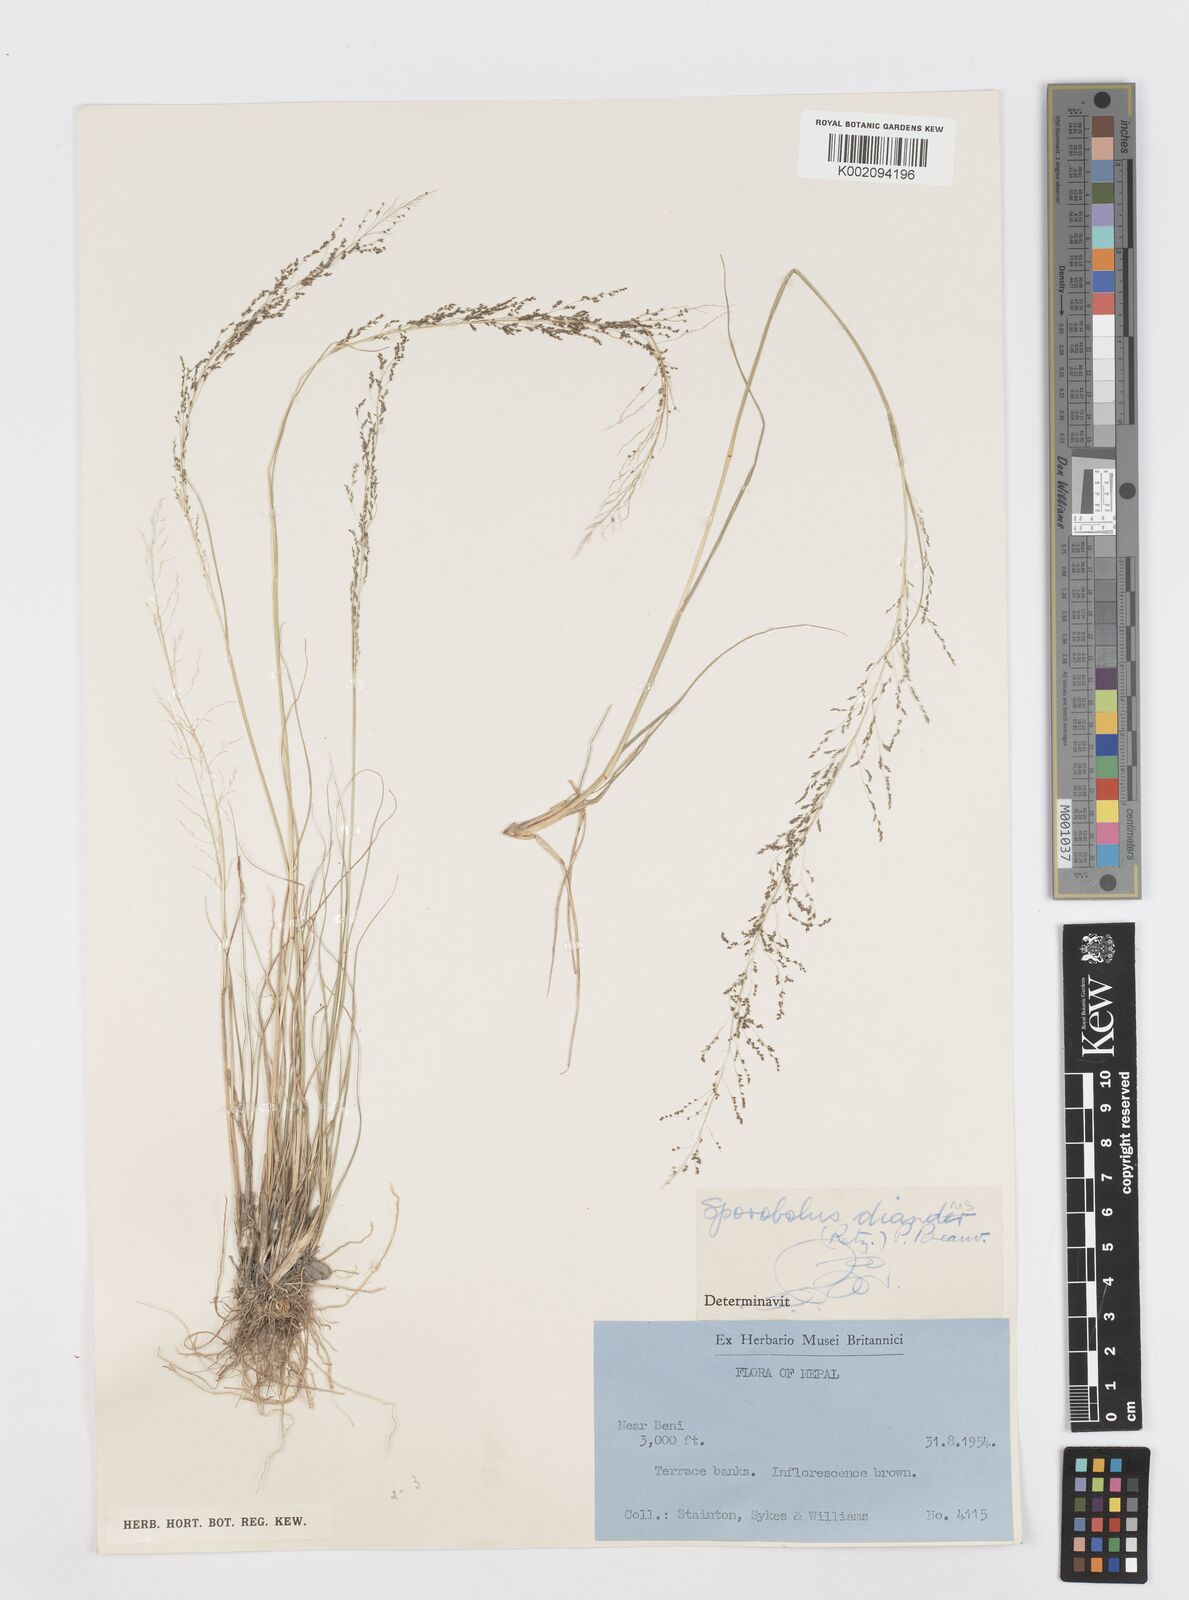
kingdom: Plantae
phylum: Tracheophyta
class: Liliopsida
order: Poales
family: Poaceae
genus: Sporobolus
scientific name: Sporobolus diandrus
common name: Tussock dropseed
